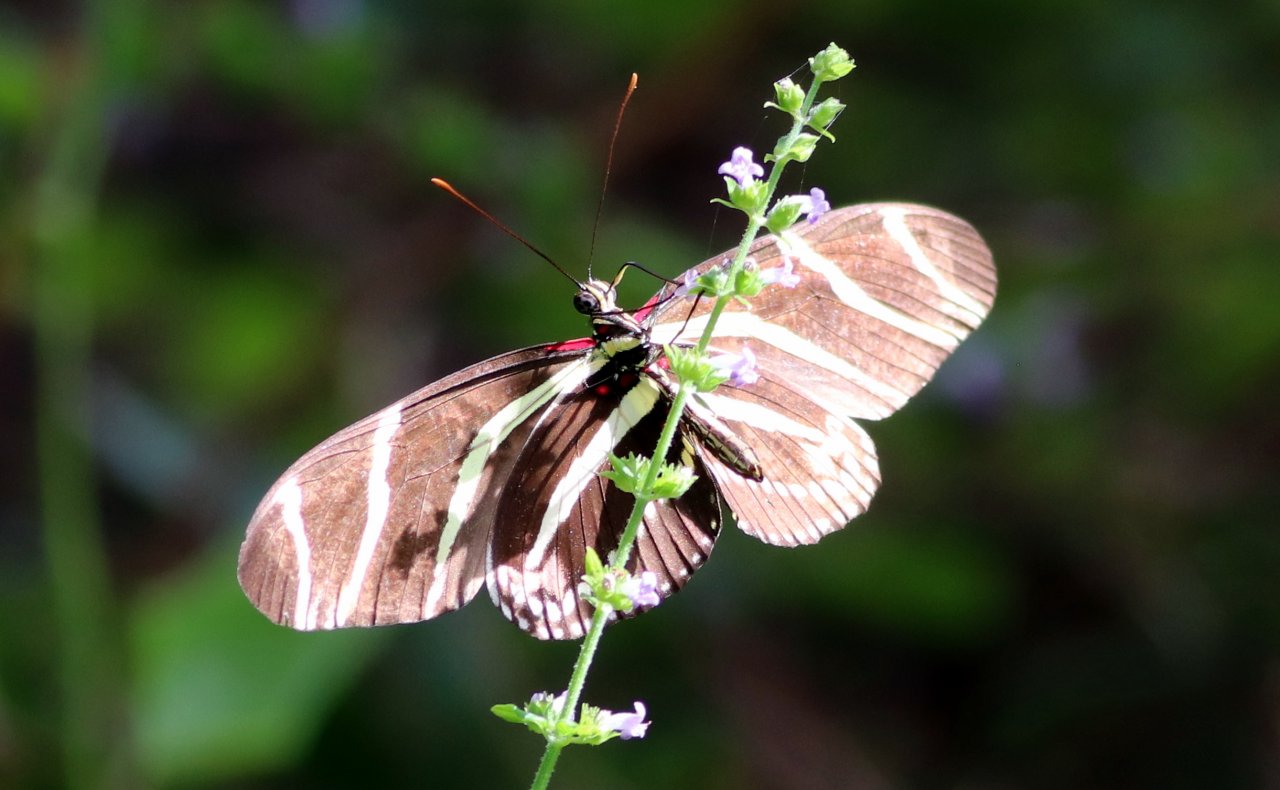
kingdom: Animalia
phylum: Arthropoda
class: Insecta
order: Lepidoptera
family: Nymphalidae
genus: Heliconius
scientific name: Heliconius charithonia
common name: Zebra Longwing
